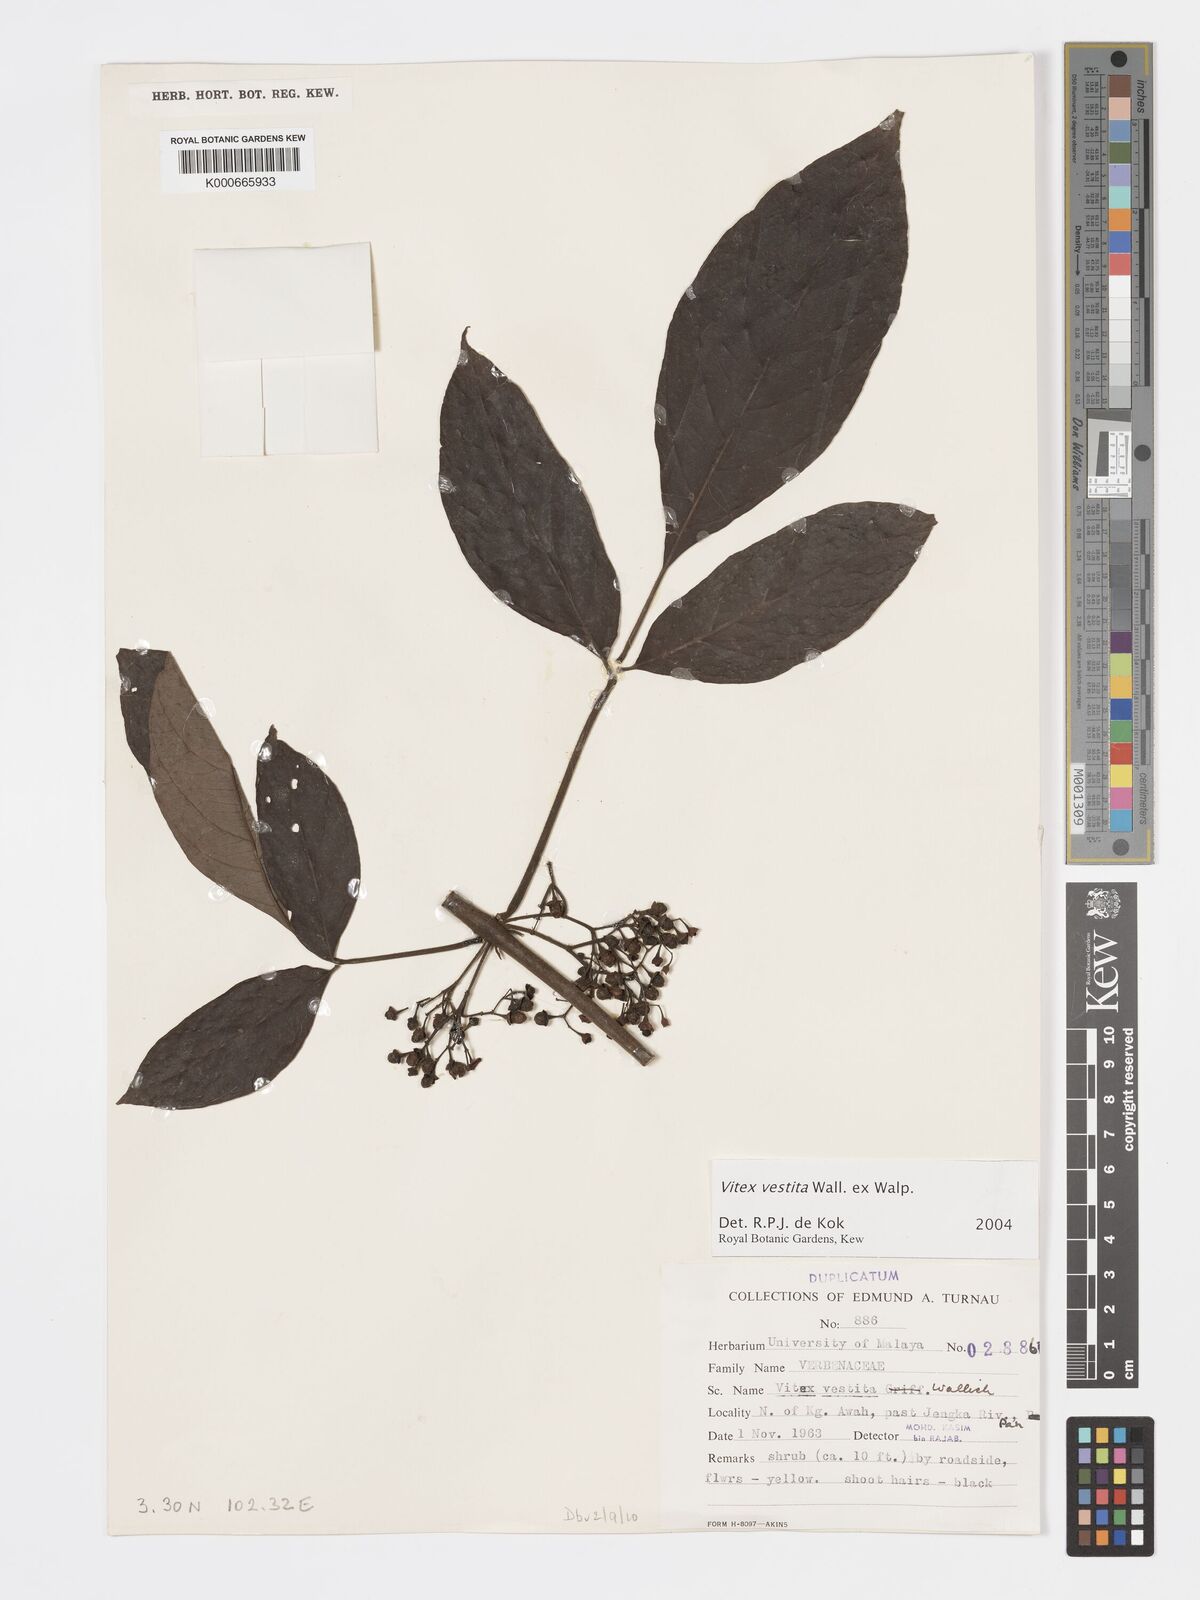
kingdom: Plantae
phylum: Tracheophyta
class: Magnoliopsida
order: Lamiales
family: Lamiaceae
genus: Vitex
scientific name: Vitex vestita
